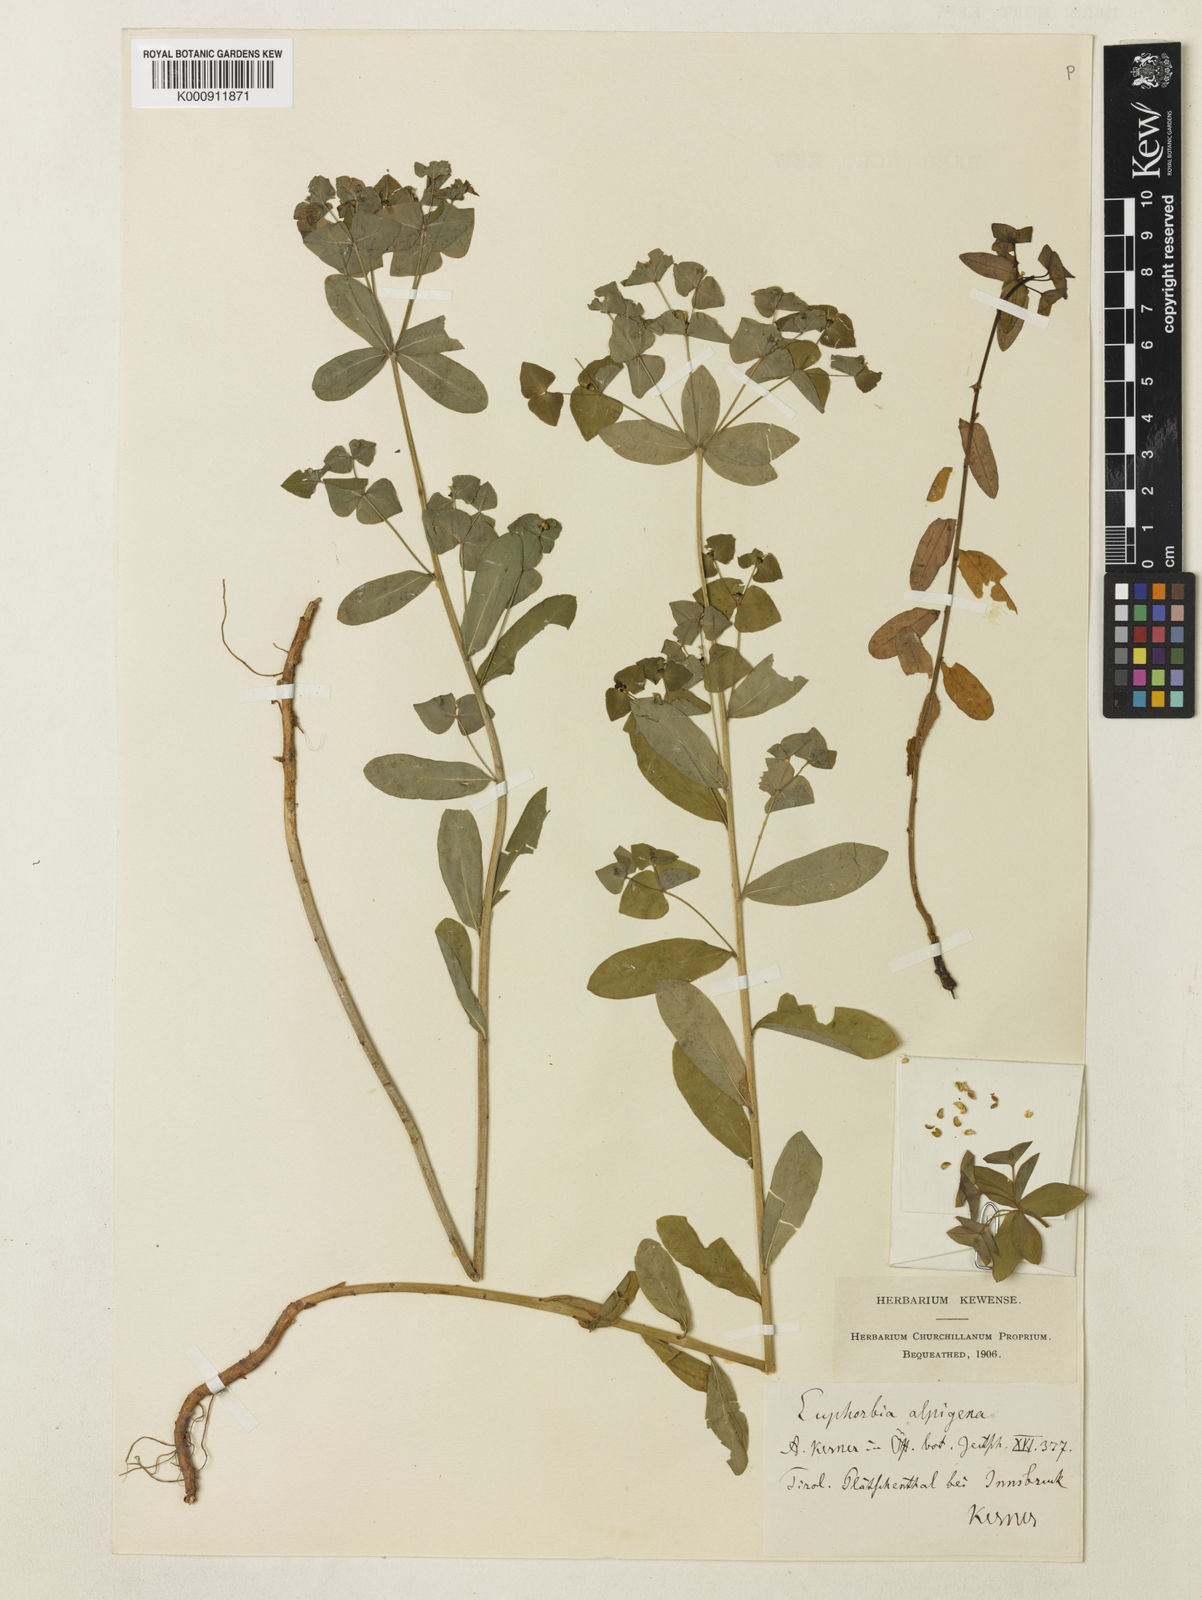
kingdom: Plantae
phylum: Tracheophyta
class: Magnoliopsida
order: Malpighiales
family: Euphorbiaceae
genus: Euphorbia
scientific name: Euphorbia
